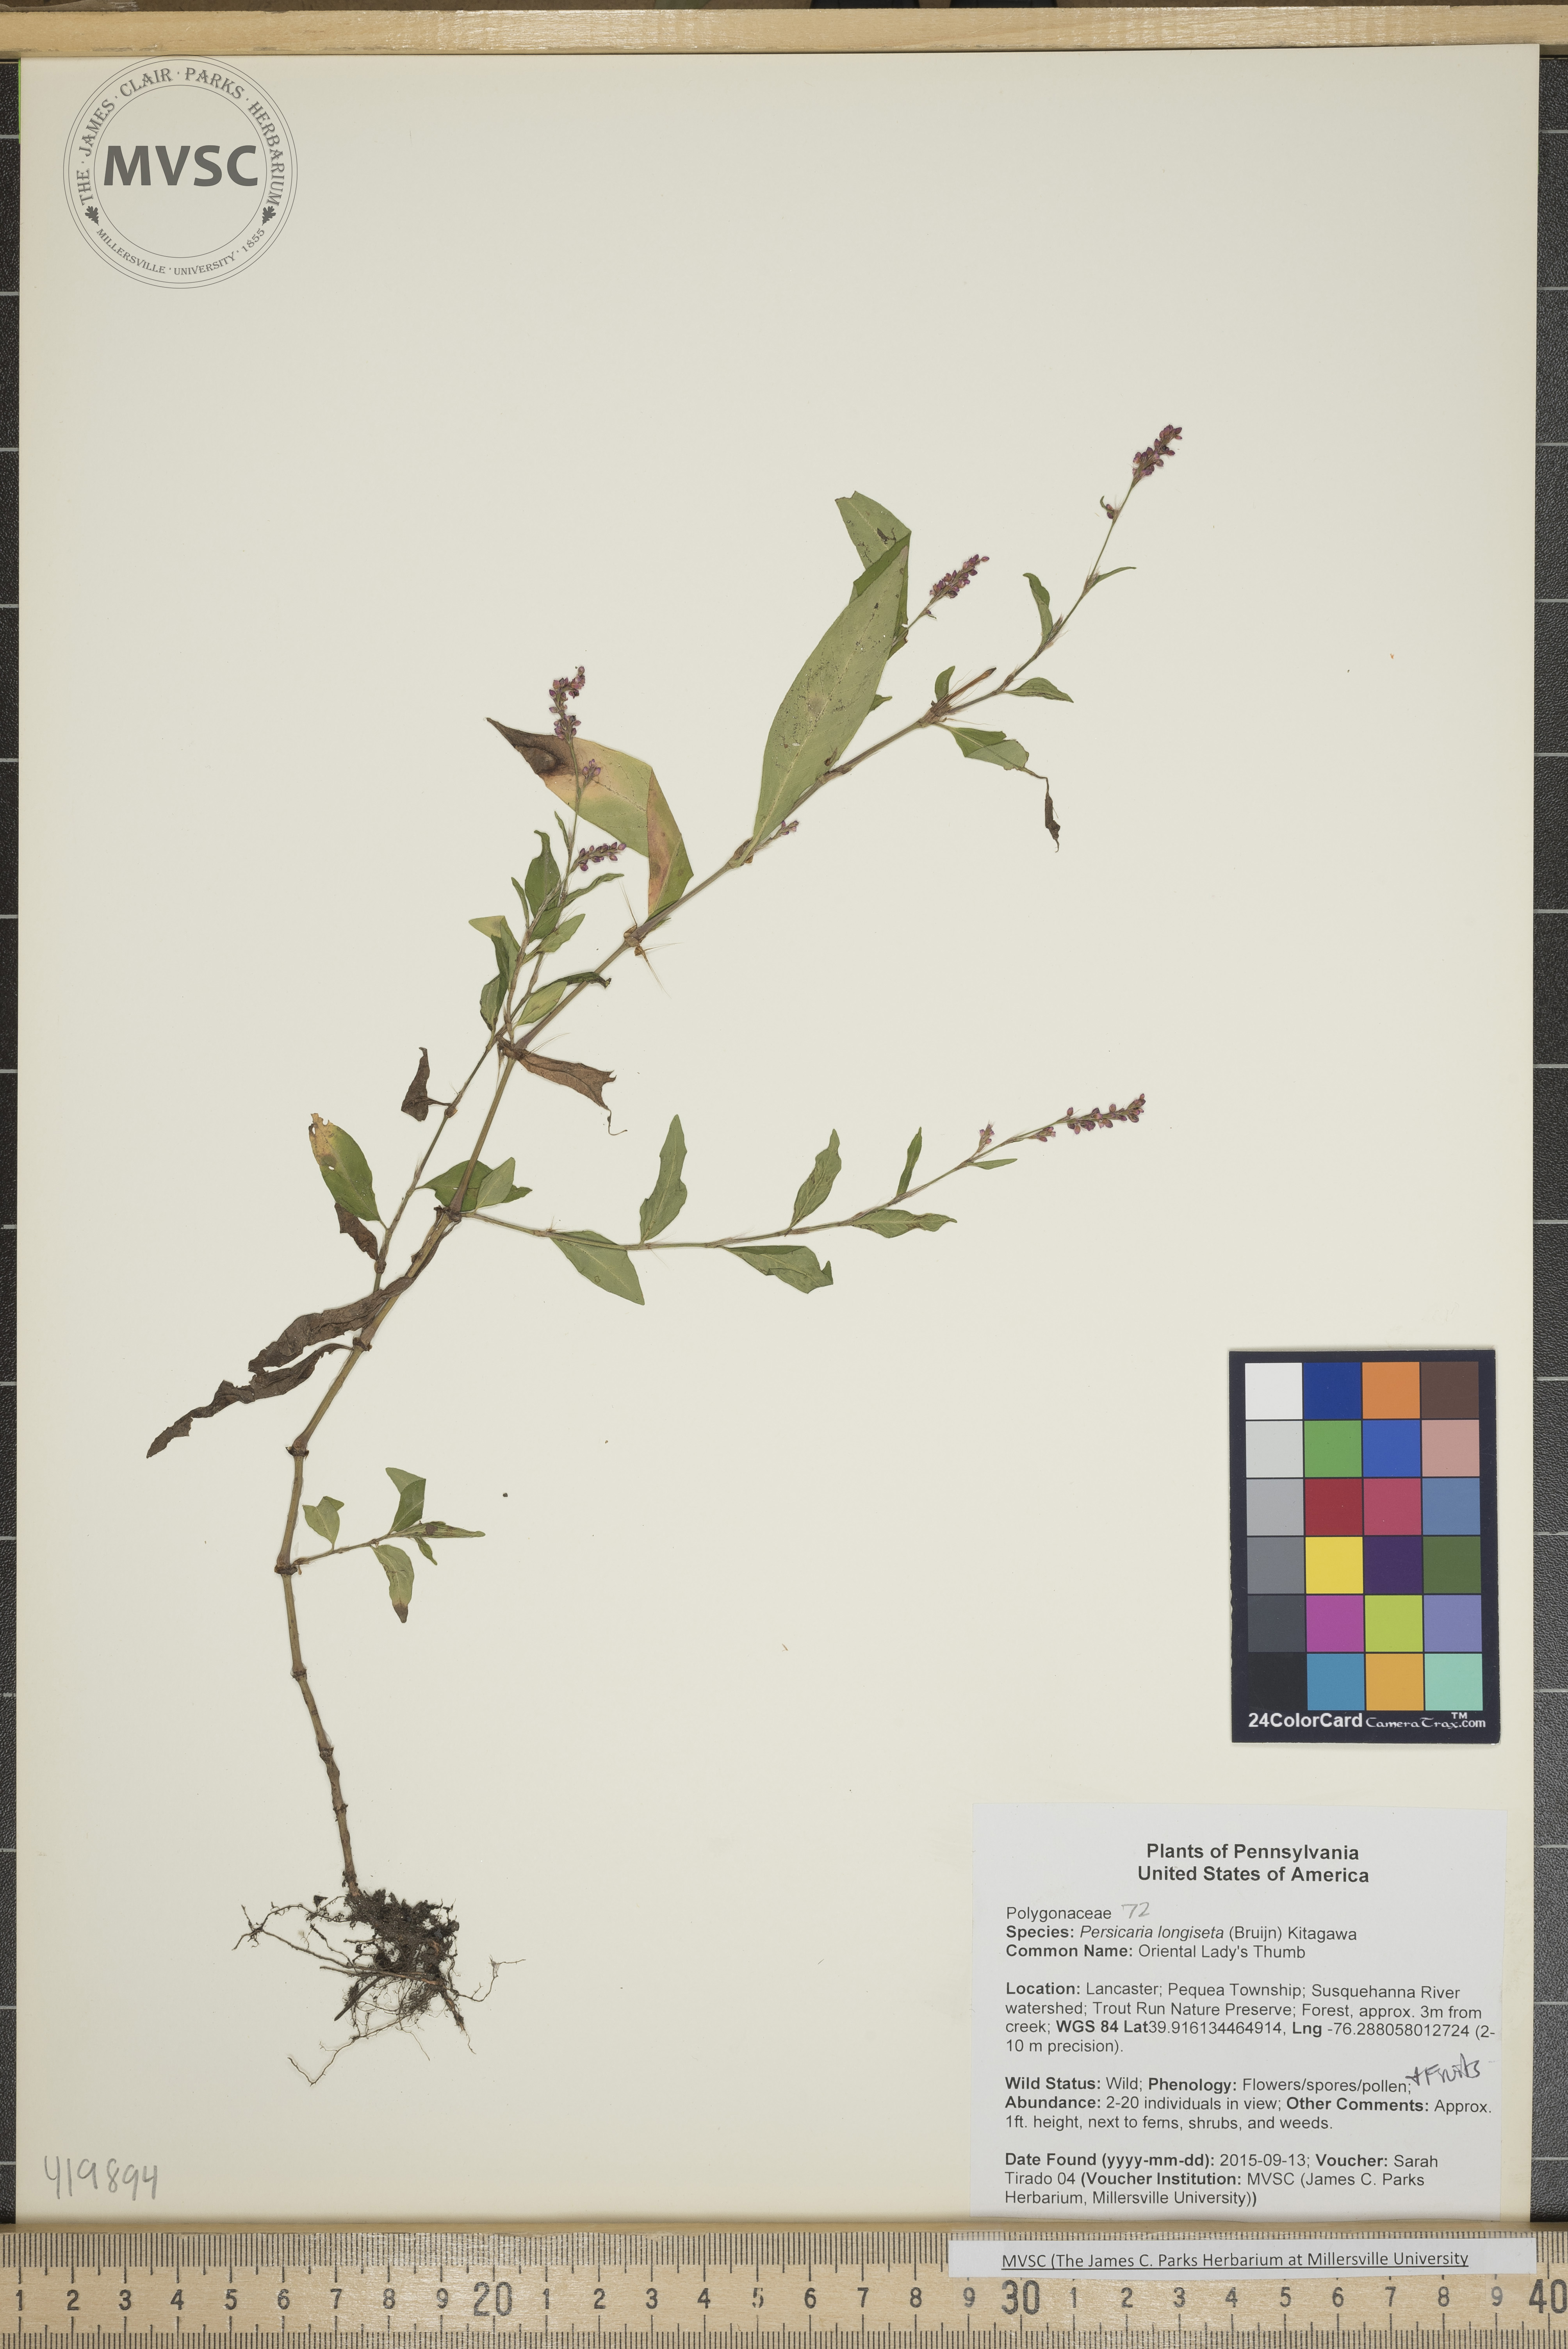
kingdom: Plantae
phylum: Tracheophyta
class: Magnoliopsida
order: Caryophyllales
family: Polygonaceae
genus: Persicaria
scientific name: Persicaria longiseta
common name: Oriental Lady's Thumb
